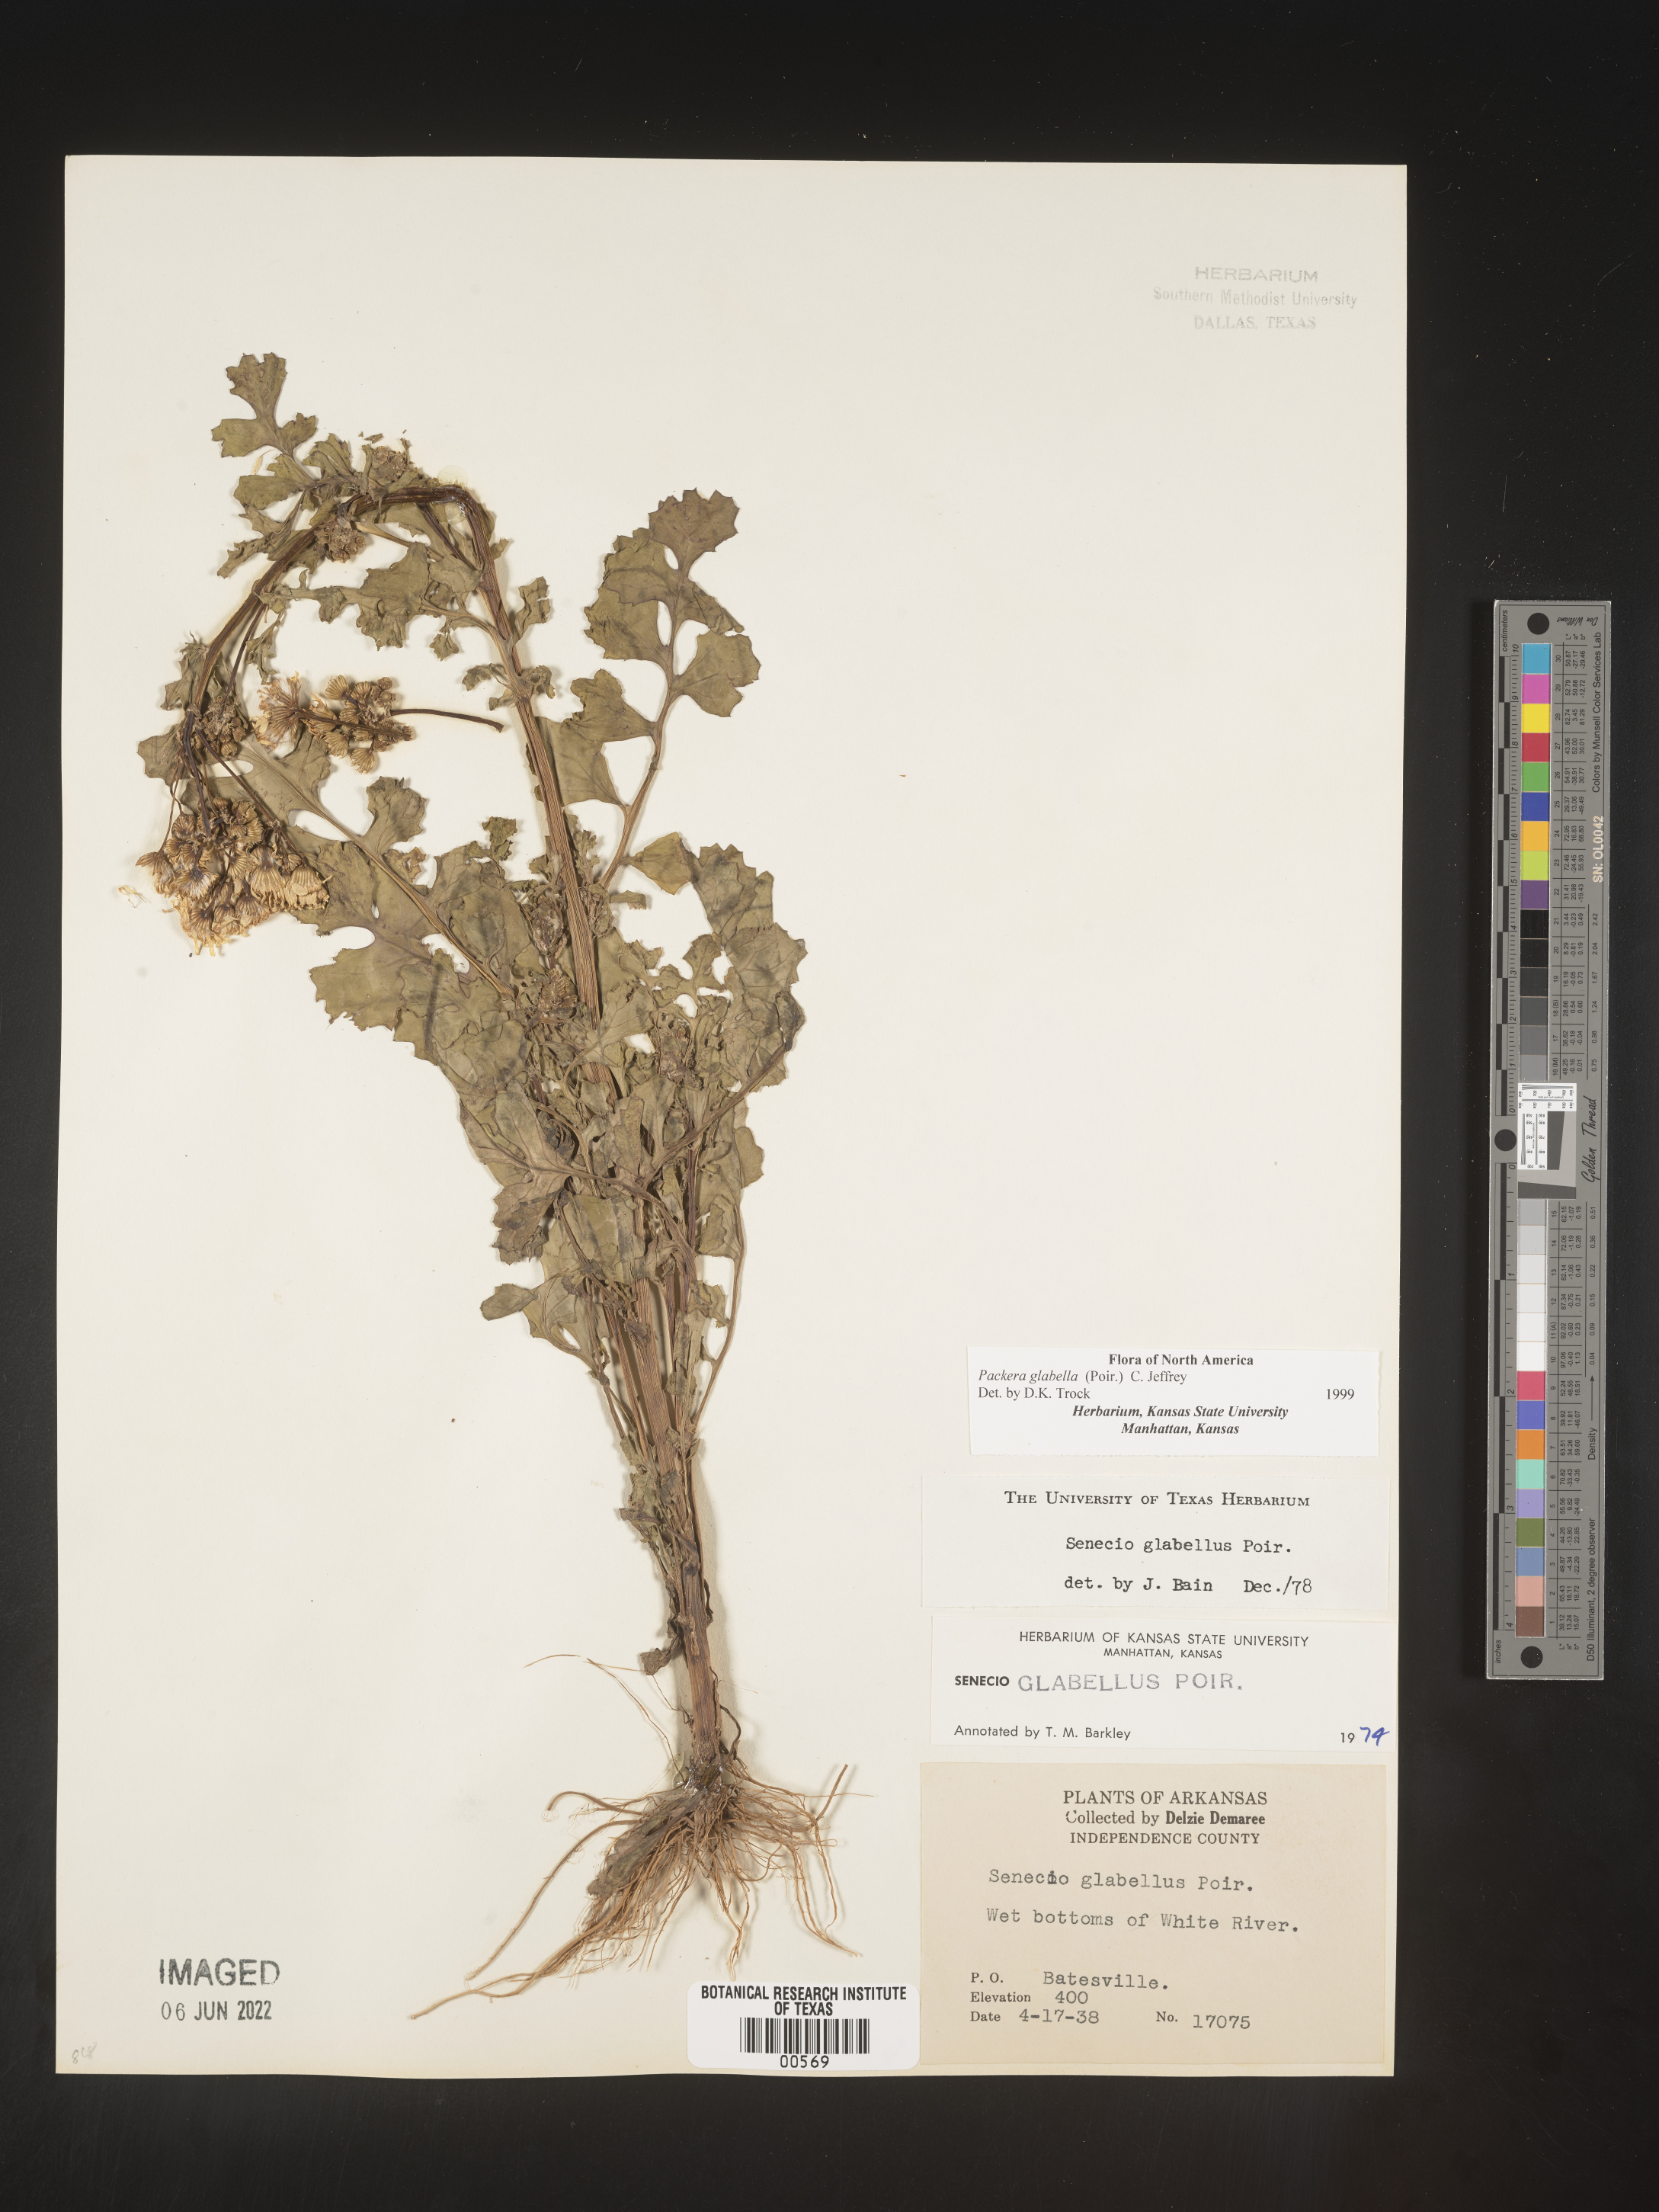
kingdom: Plantae
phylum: Tracheophyta
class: Magnoliopsida
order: Asterales
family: Asteraceae
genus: Packera
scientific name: Packera glabella
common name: Butterweed
